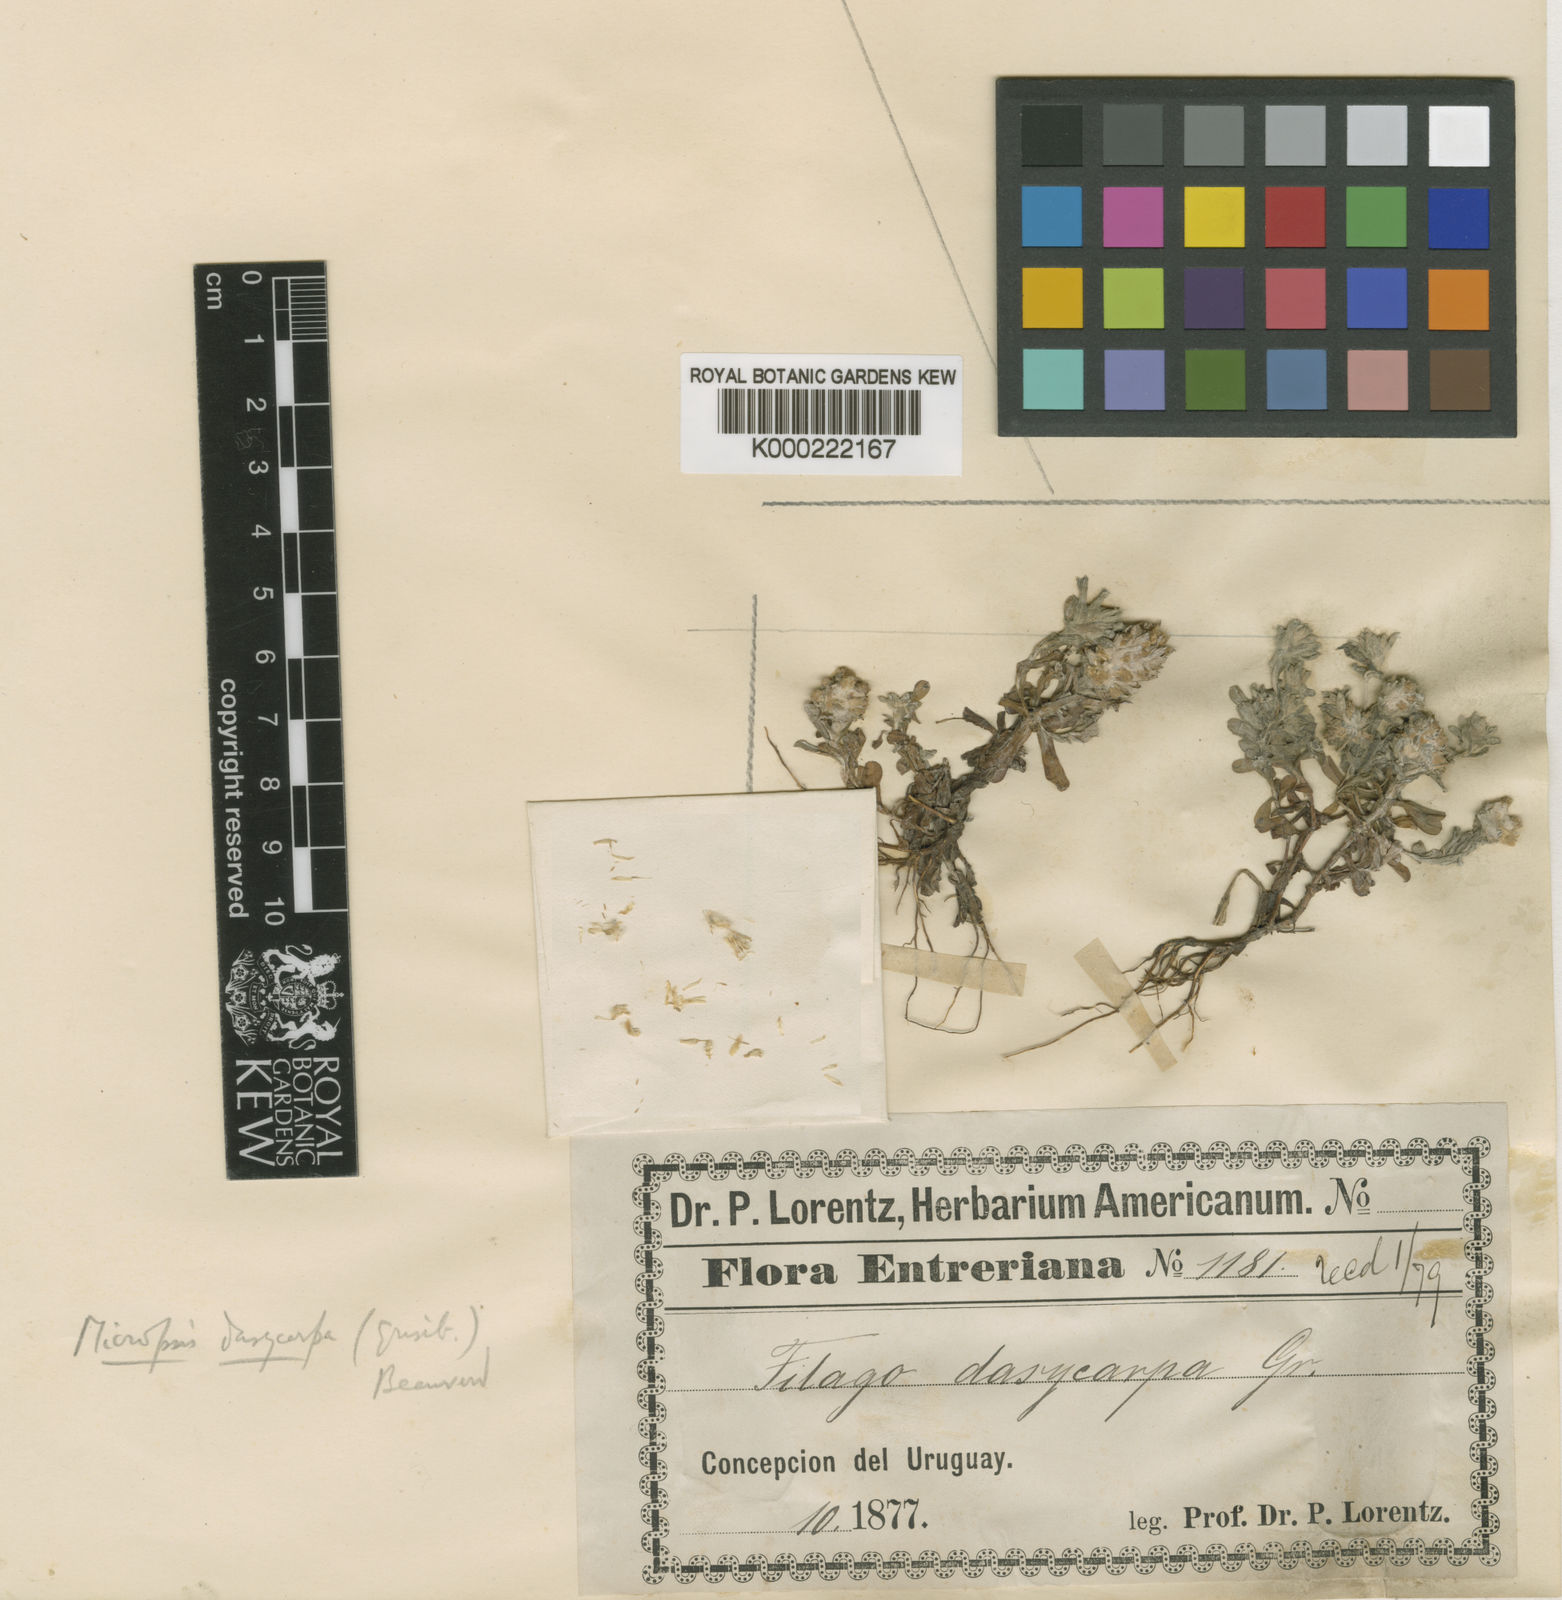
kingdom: Plantae
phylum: Tracheophyta
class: Magnoliopsida
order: Asterales
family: Asteraceae
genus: Micropsis
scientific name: Micropsis dasycarpa
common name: Bighead straitjackets
